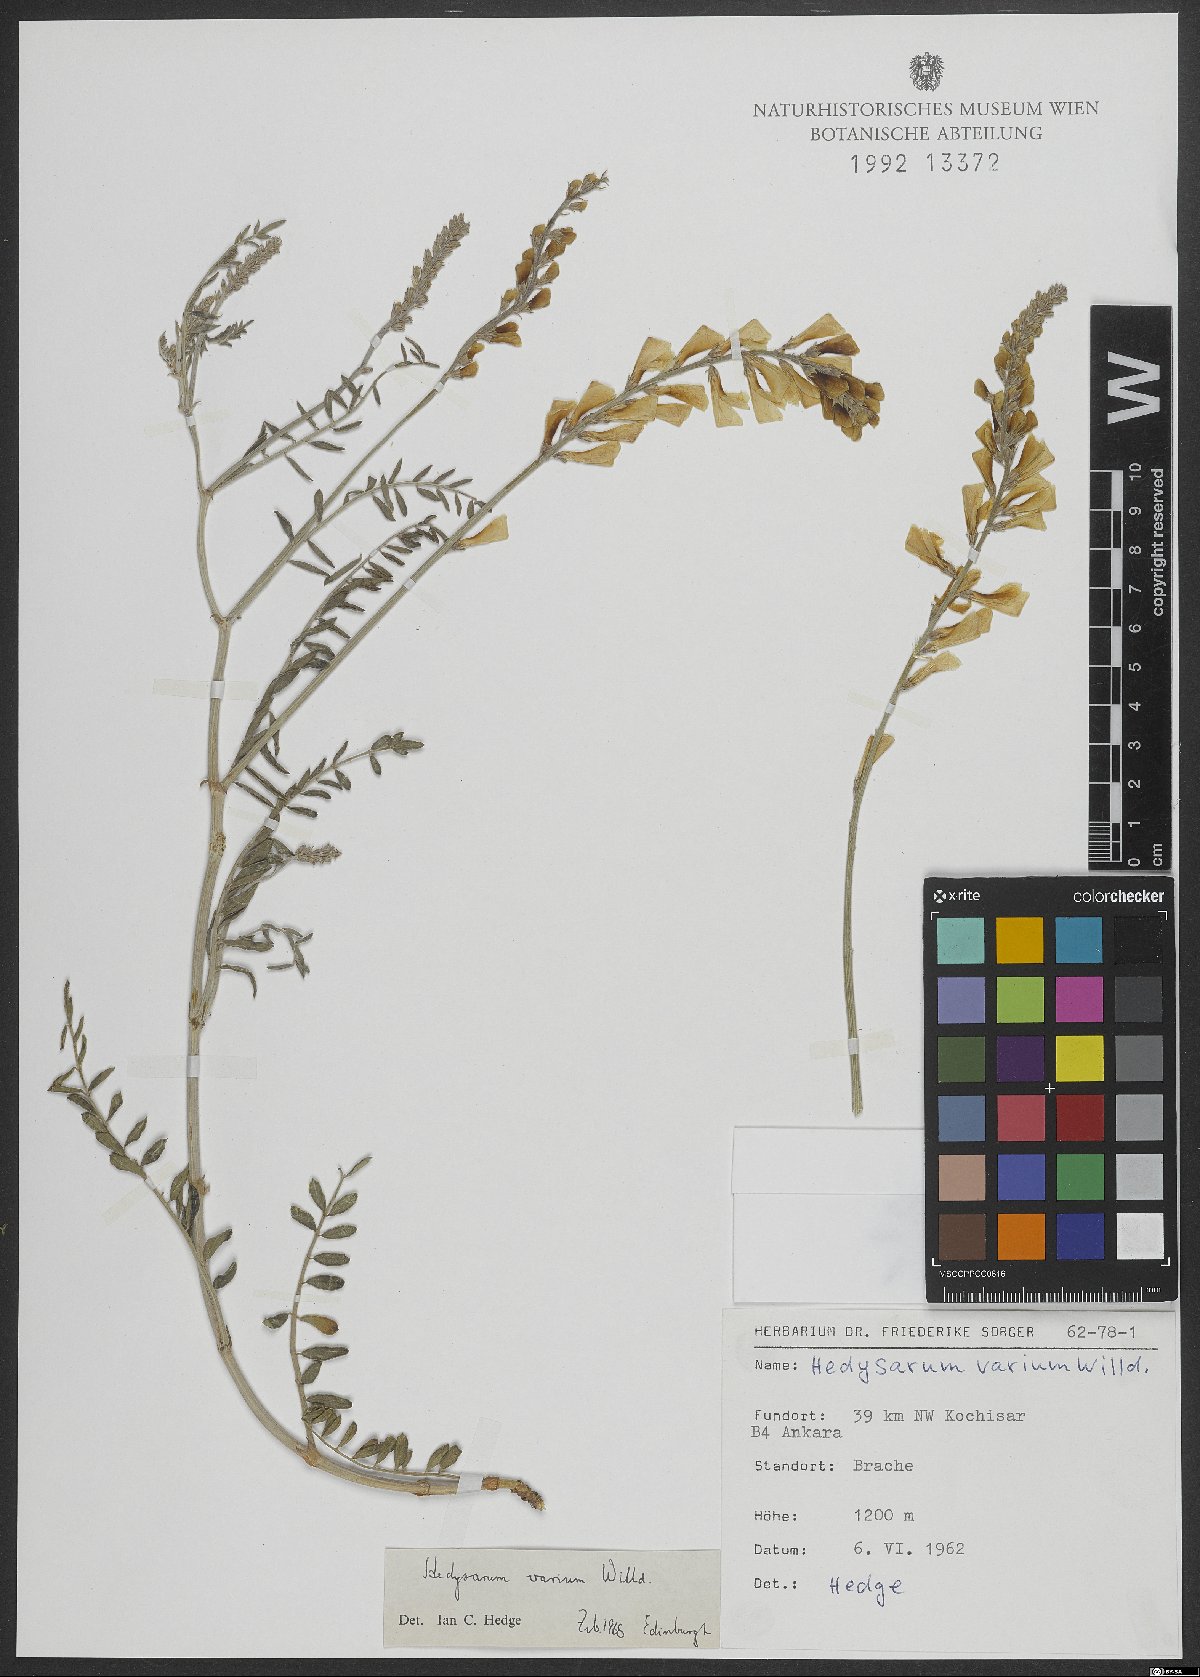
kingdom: Plantae
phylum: Tracheophyta
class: Magnoliopsida
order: Fabales
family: Fabaceae
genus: Hedysarum
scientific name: Hedysarum varium
